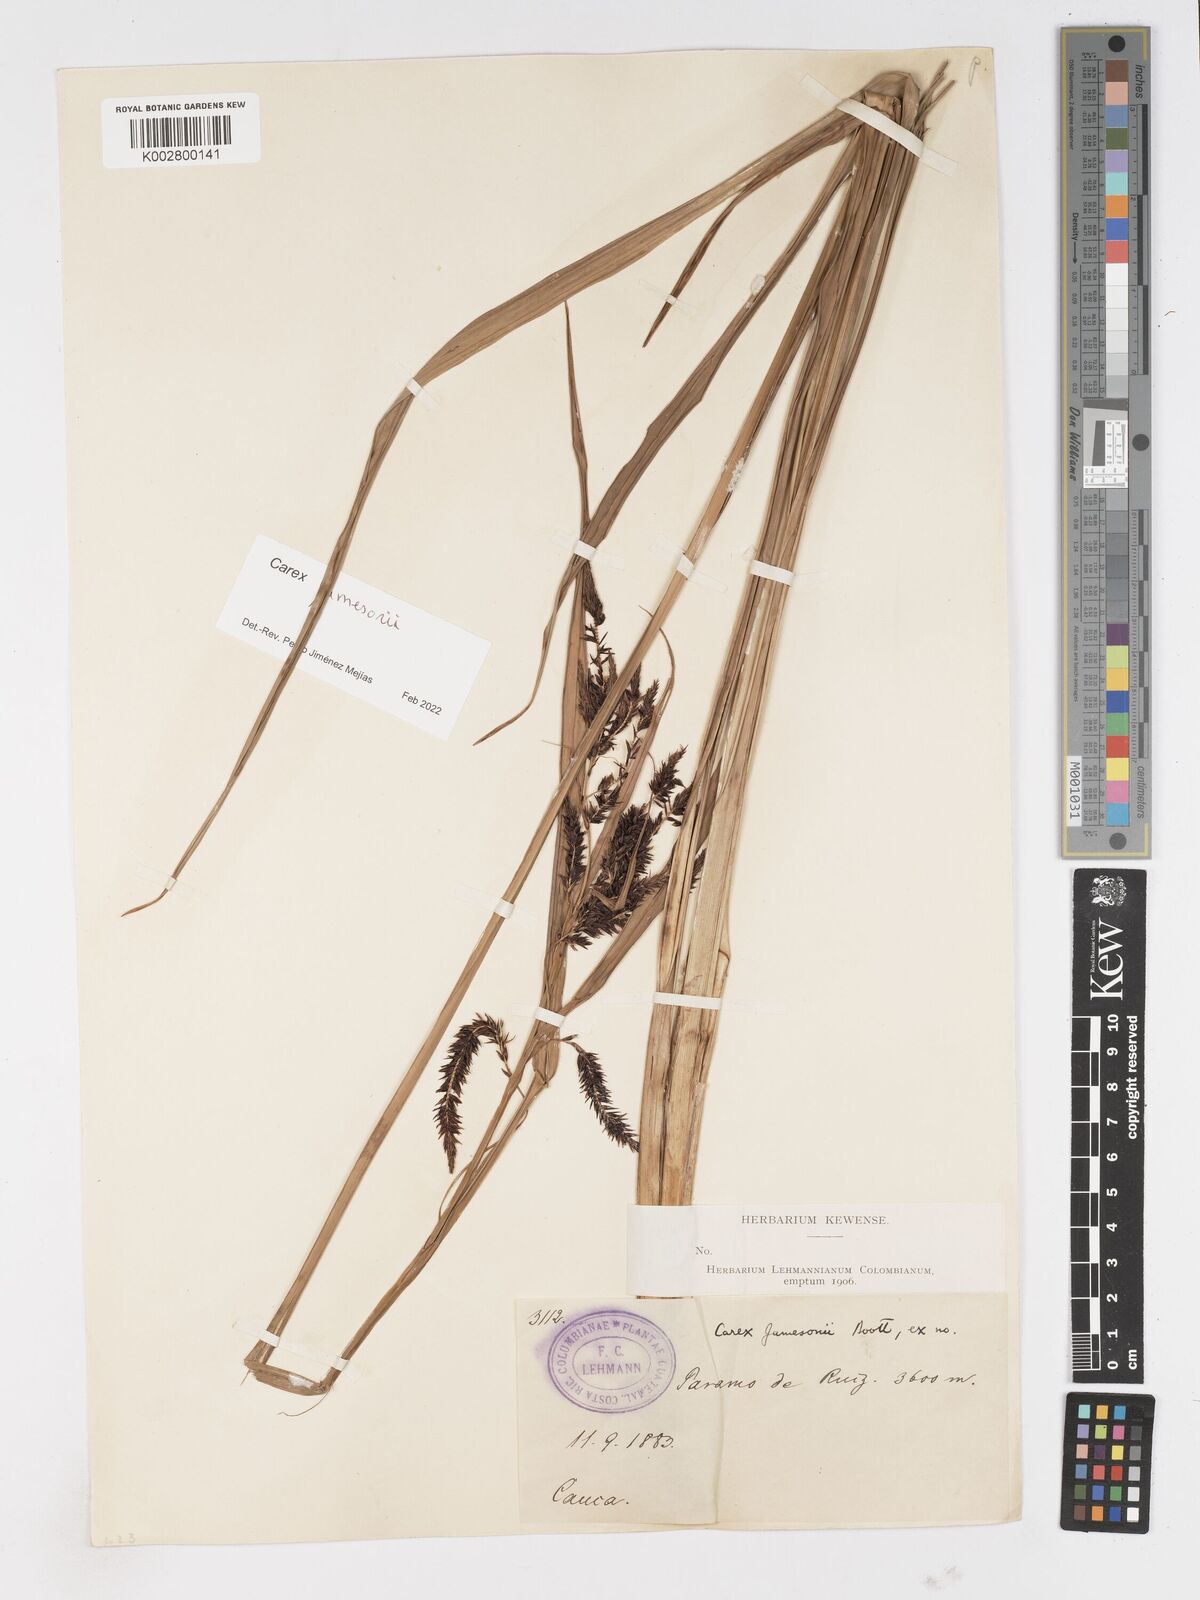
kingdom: Plantae
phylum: Tracheophyta
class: Liliopsida
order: Poales
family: Cyperaceae
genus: Carex
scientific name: Carex jamesonii
